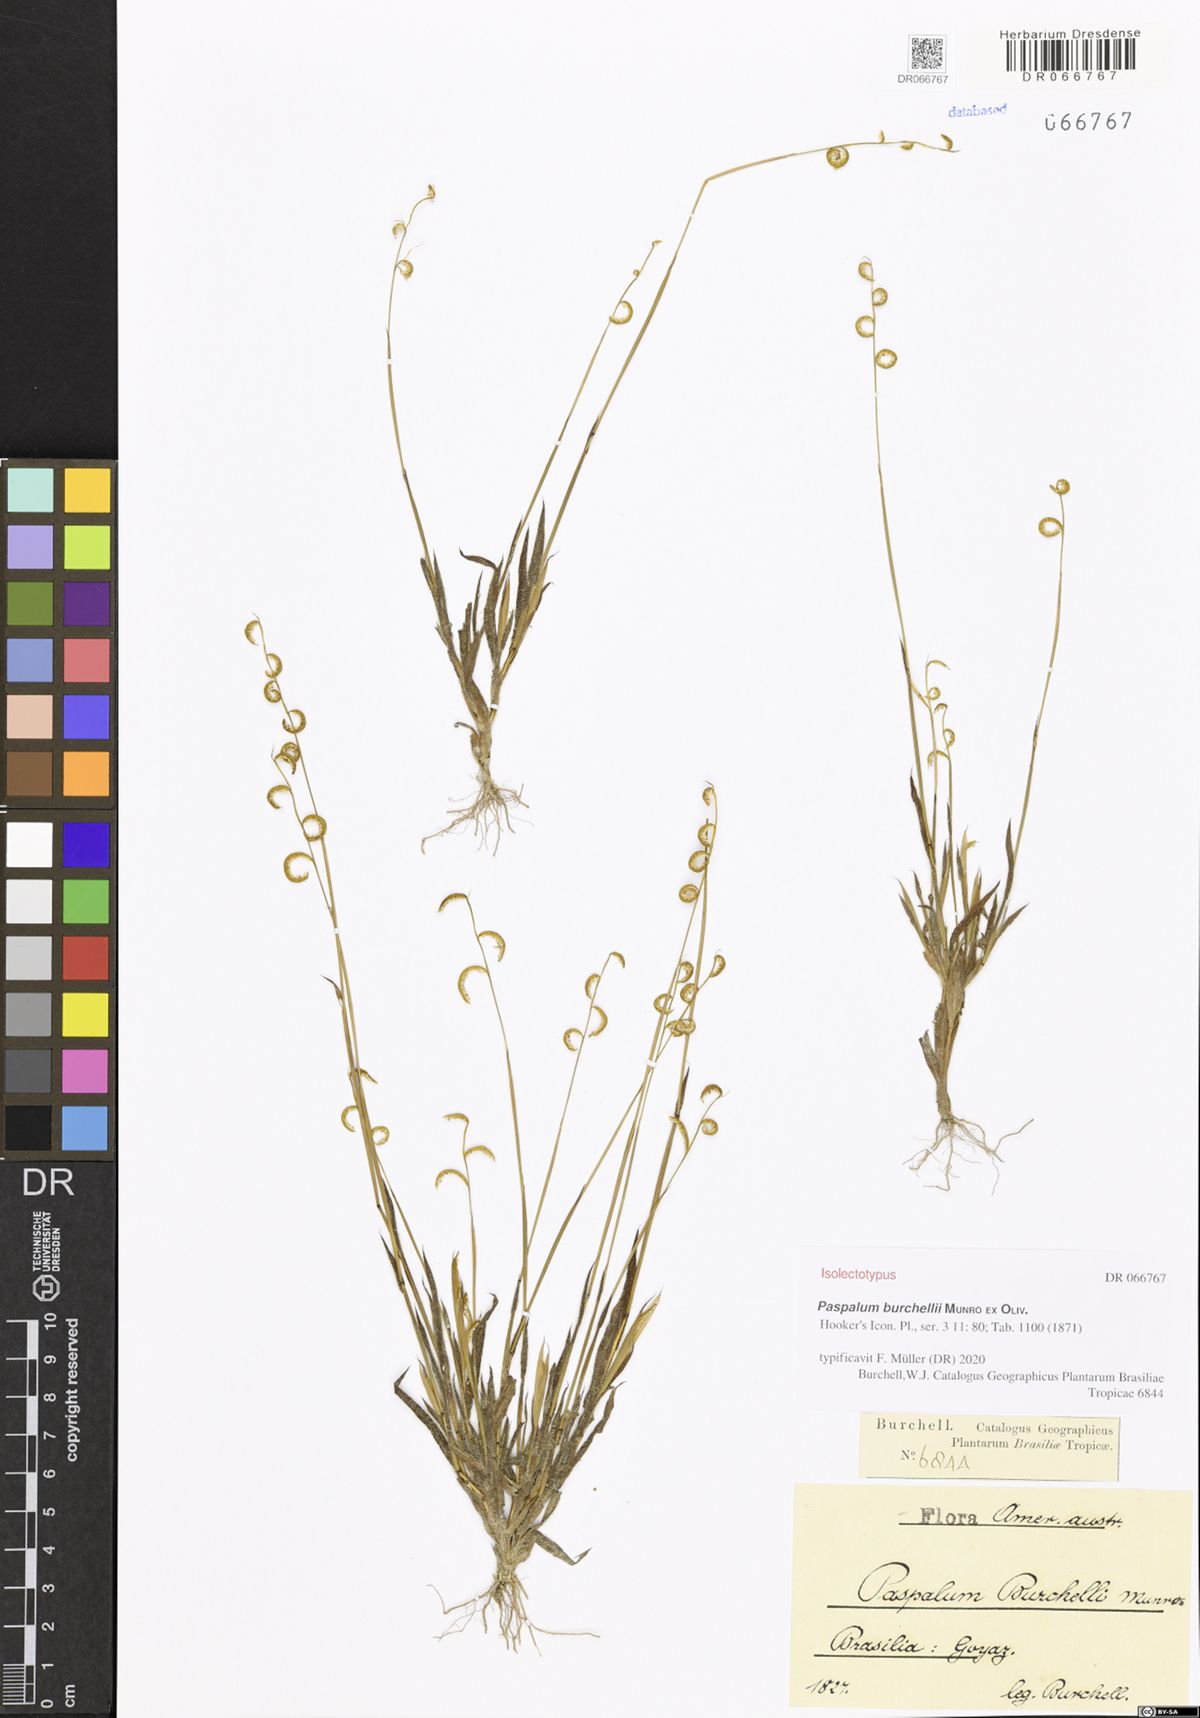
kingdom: Plantae
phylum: Tracheophyta
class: Liliopsida
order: Poales
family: Poaceae
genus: Paspalum
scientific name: Paspalum burchellii
